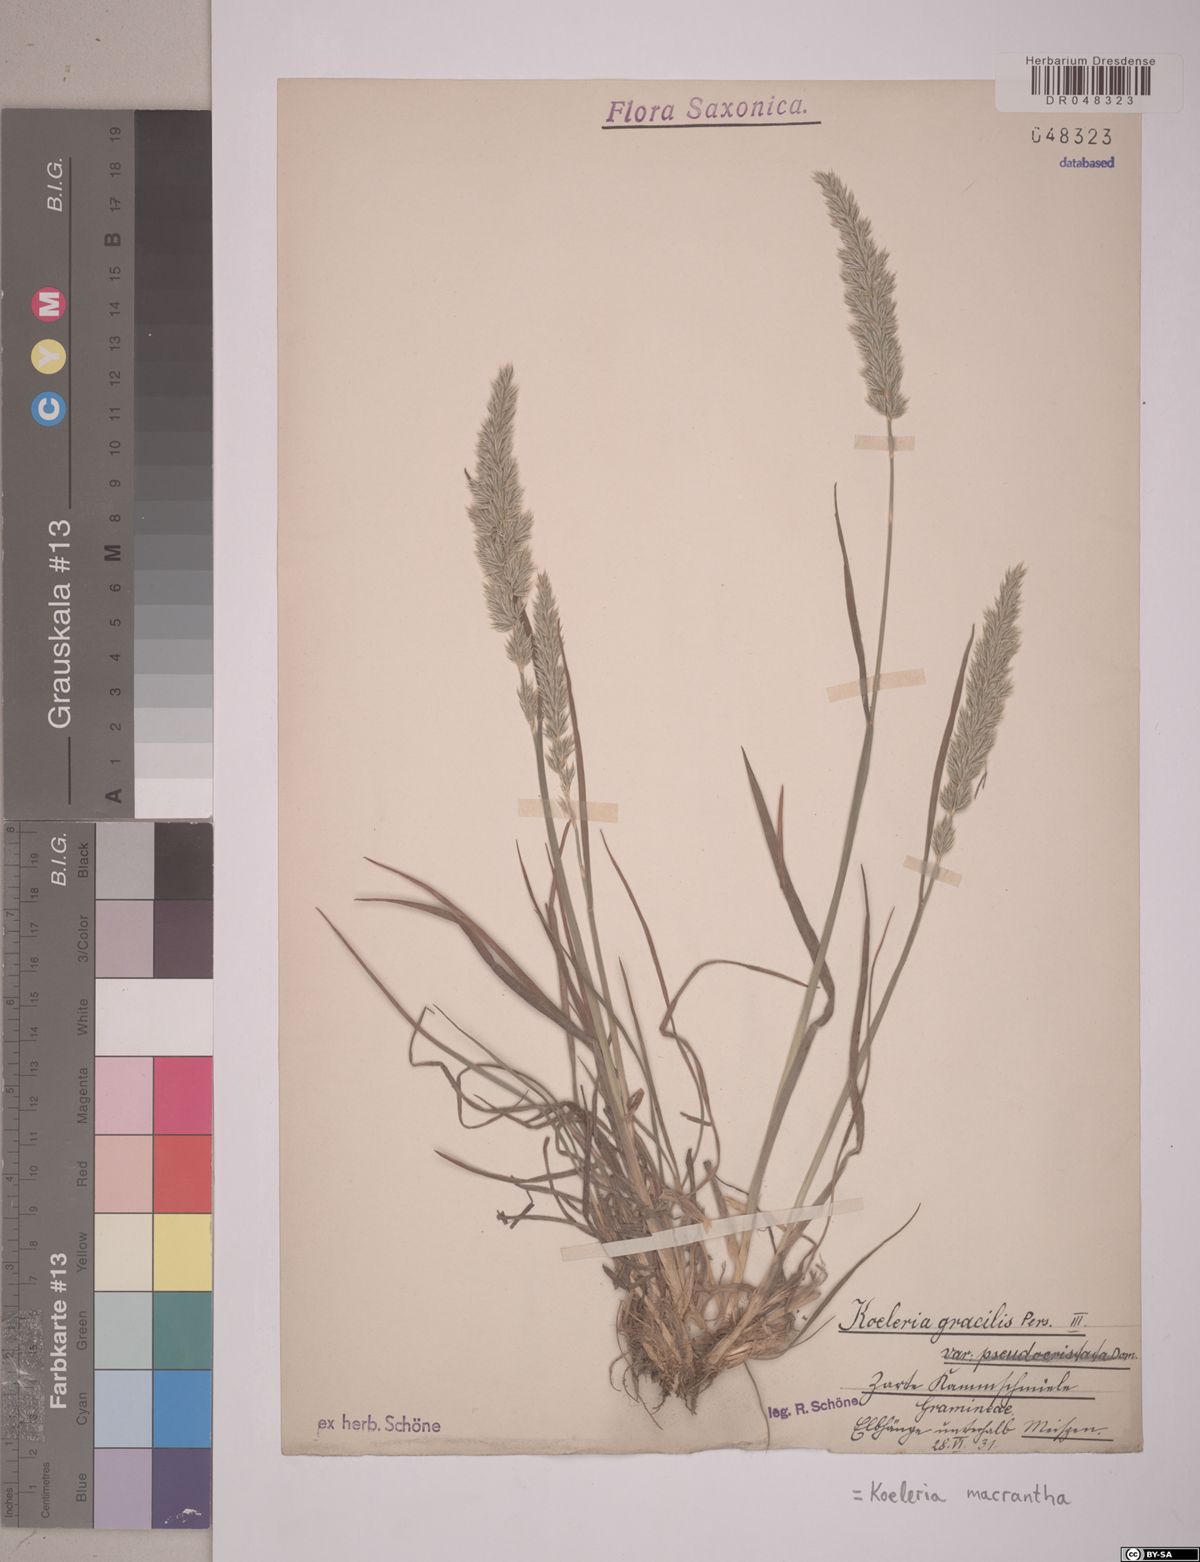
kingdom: Plantae
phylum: Tracheophyta
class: Liliopsida
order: Poales
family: Poaceae
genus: Koeleria
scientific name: Koeleria macrantha
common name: Crested hair-grass
